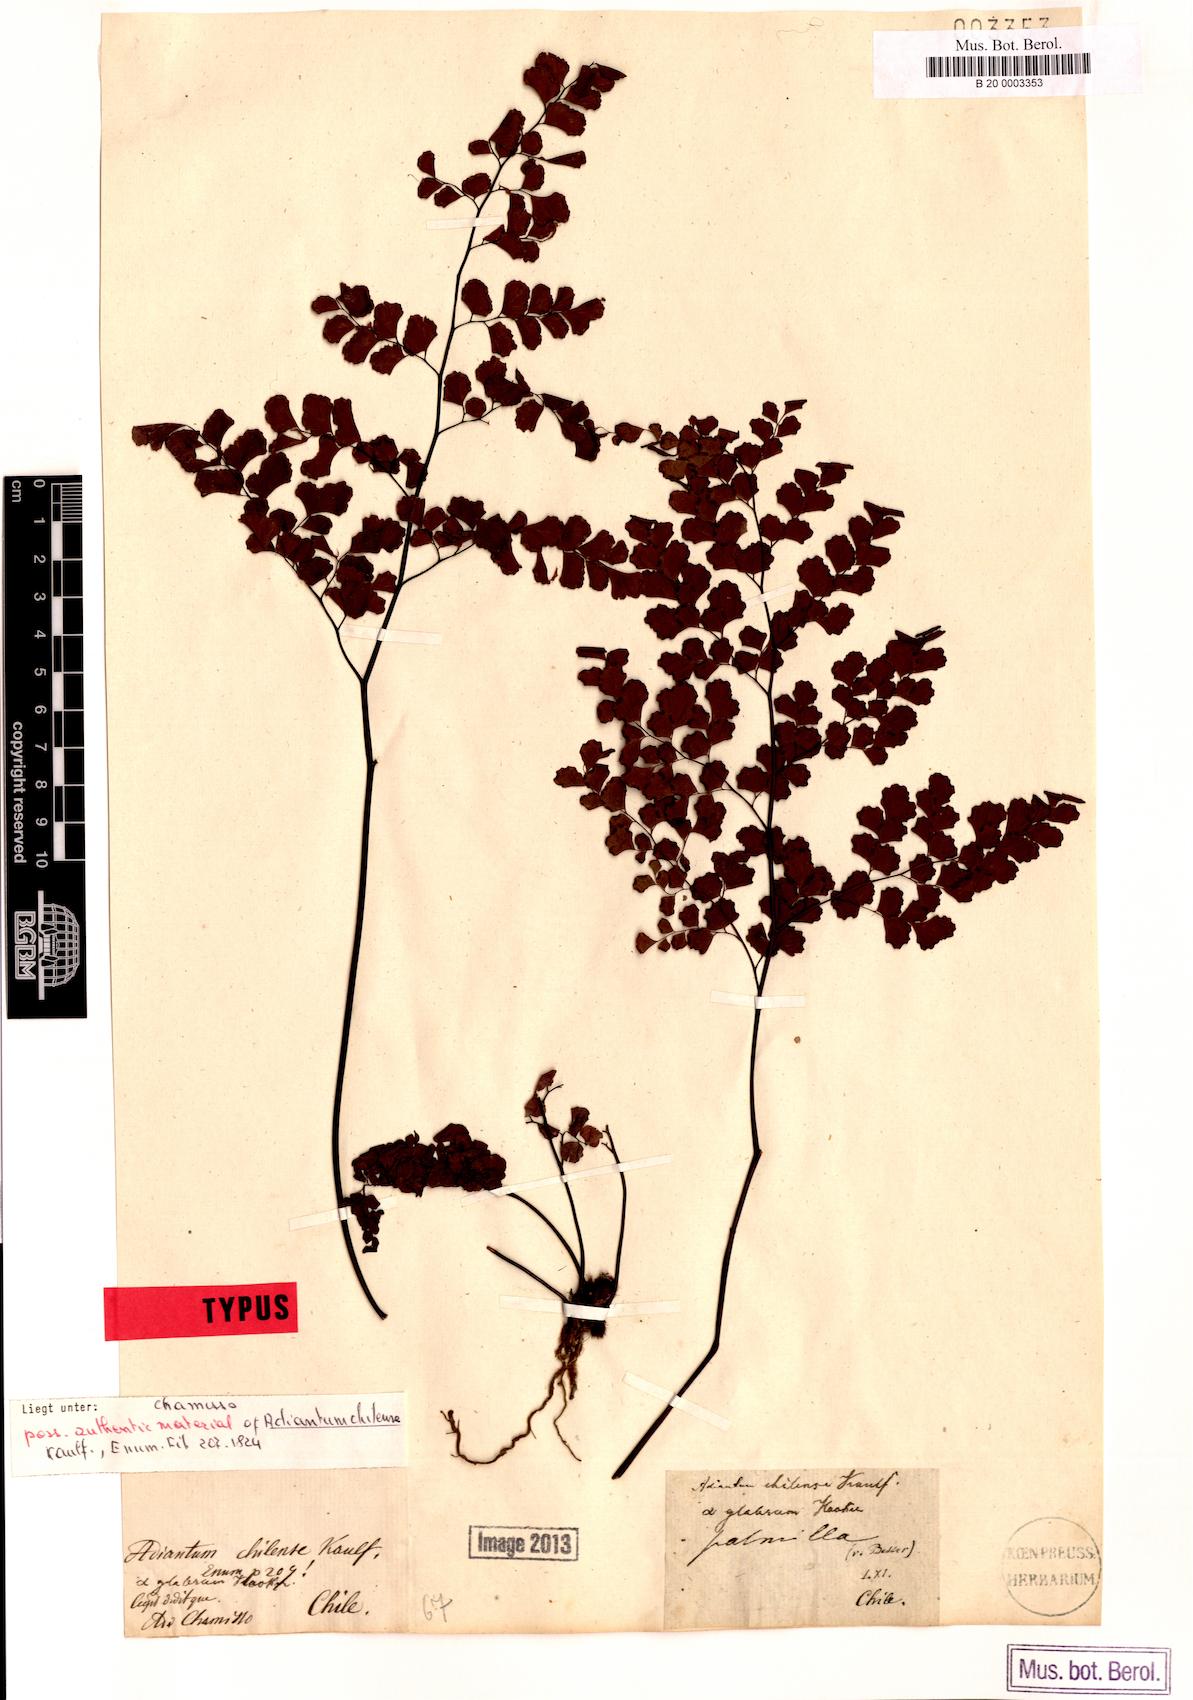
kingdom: Plantae
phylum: Tracheophyta
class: Polypodiopsida
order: Polypodiales
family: Pteridaceae
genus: Adiantum
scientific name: Adiantum chilense
